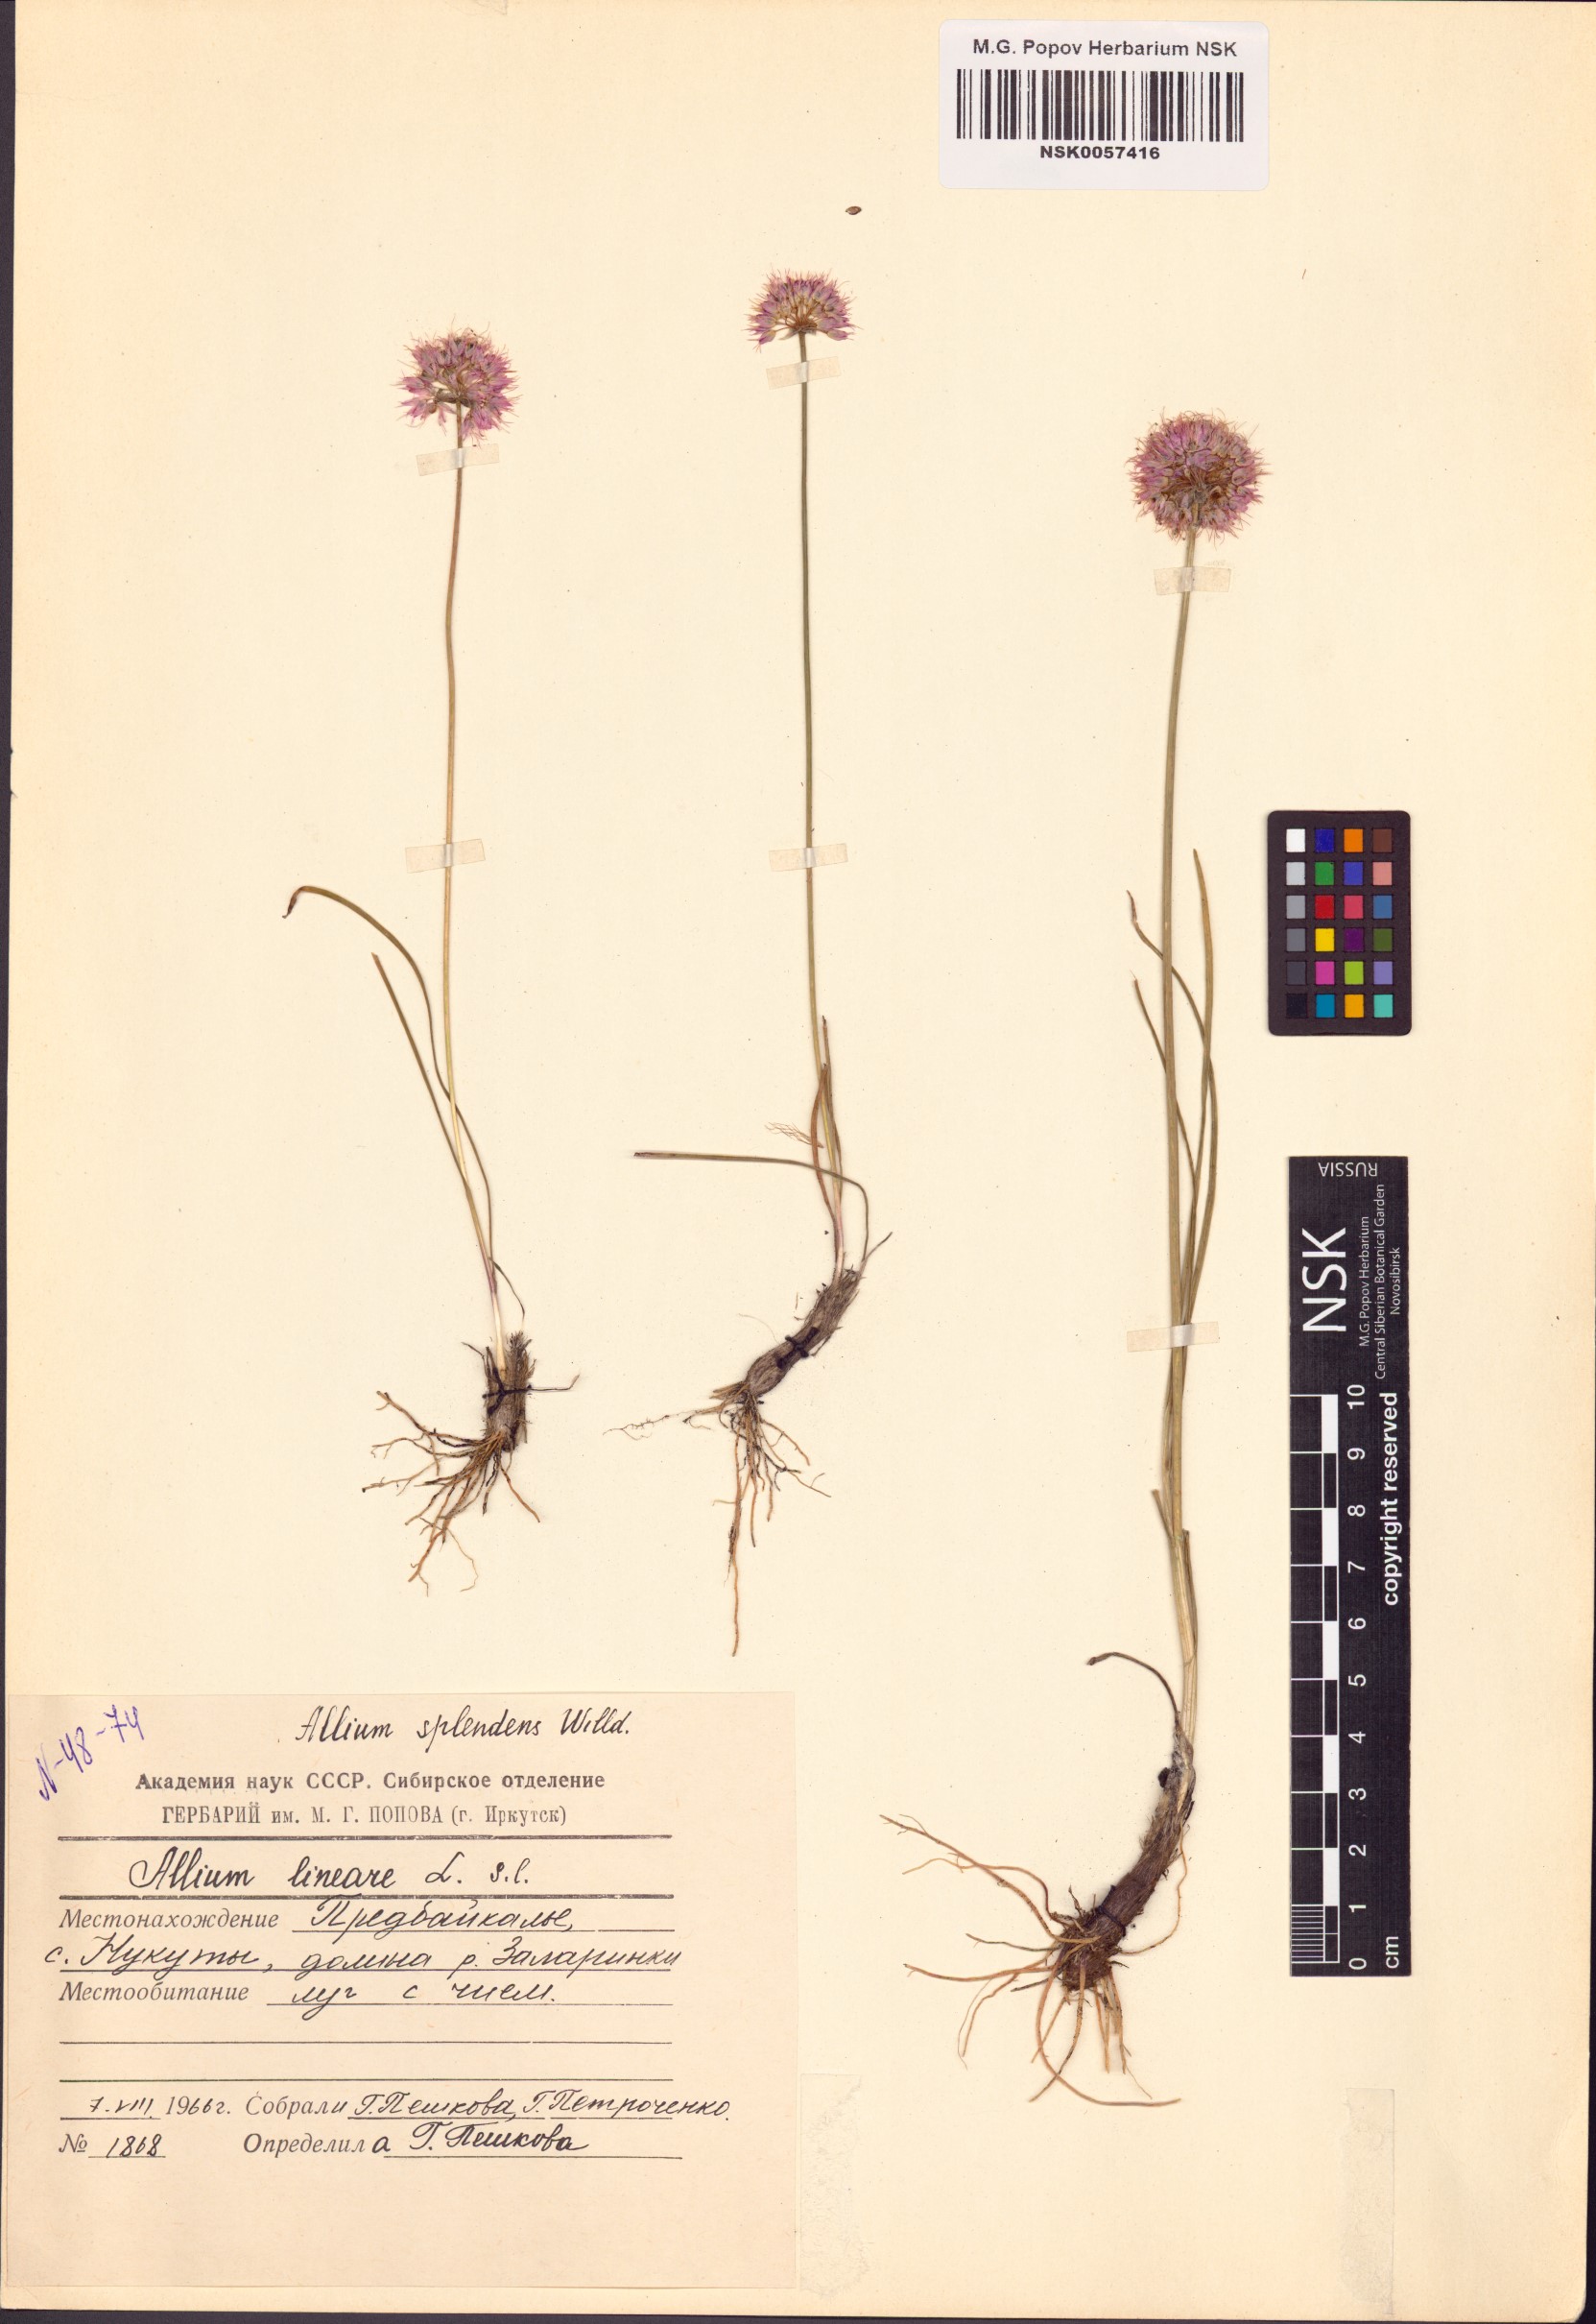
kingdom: Plantae
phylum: Tracheophyta
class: Liliopsida
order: Asparagales
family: Amaryllidaceae
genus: Allium
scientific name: Allium splendens
